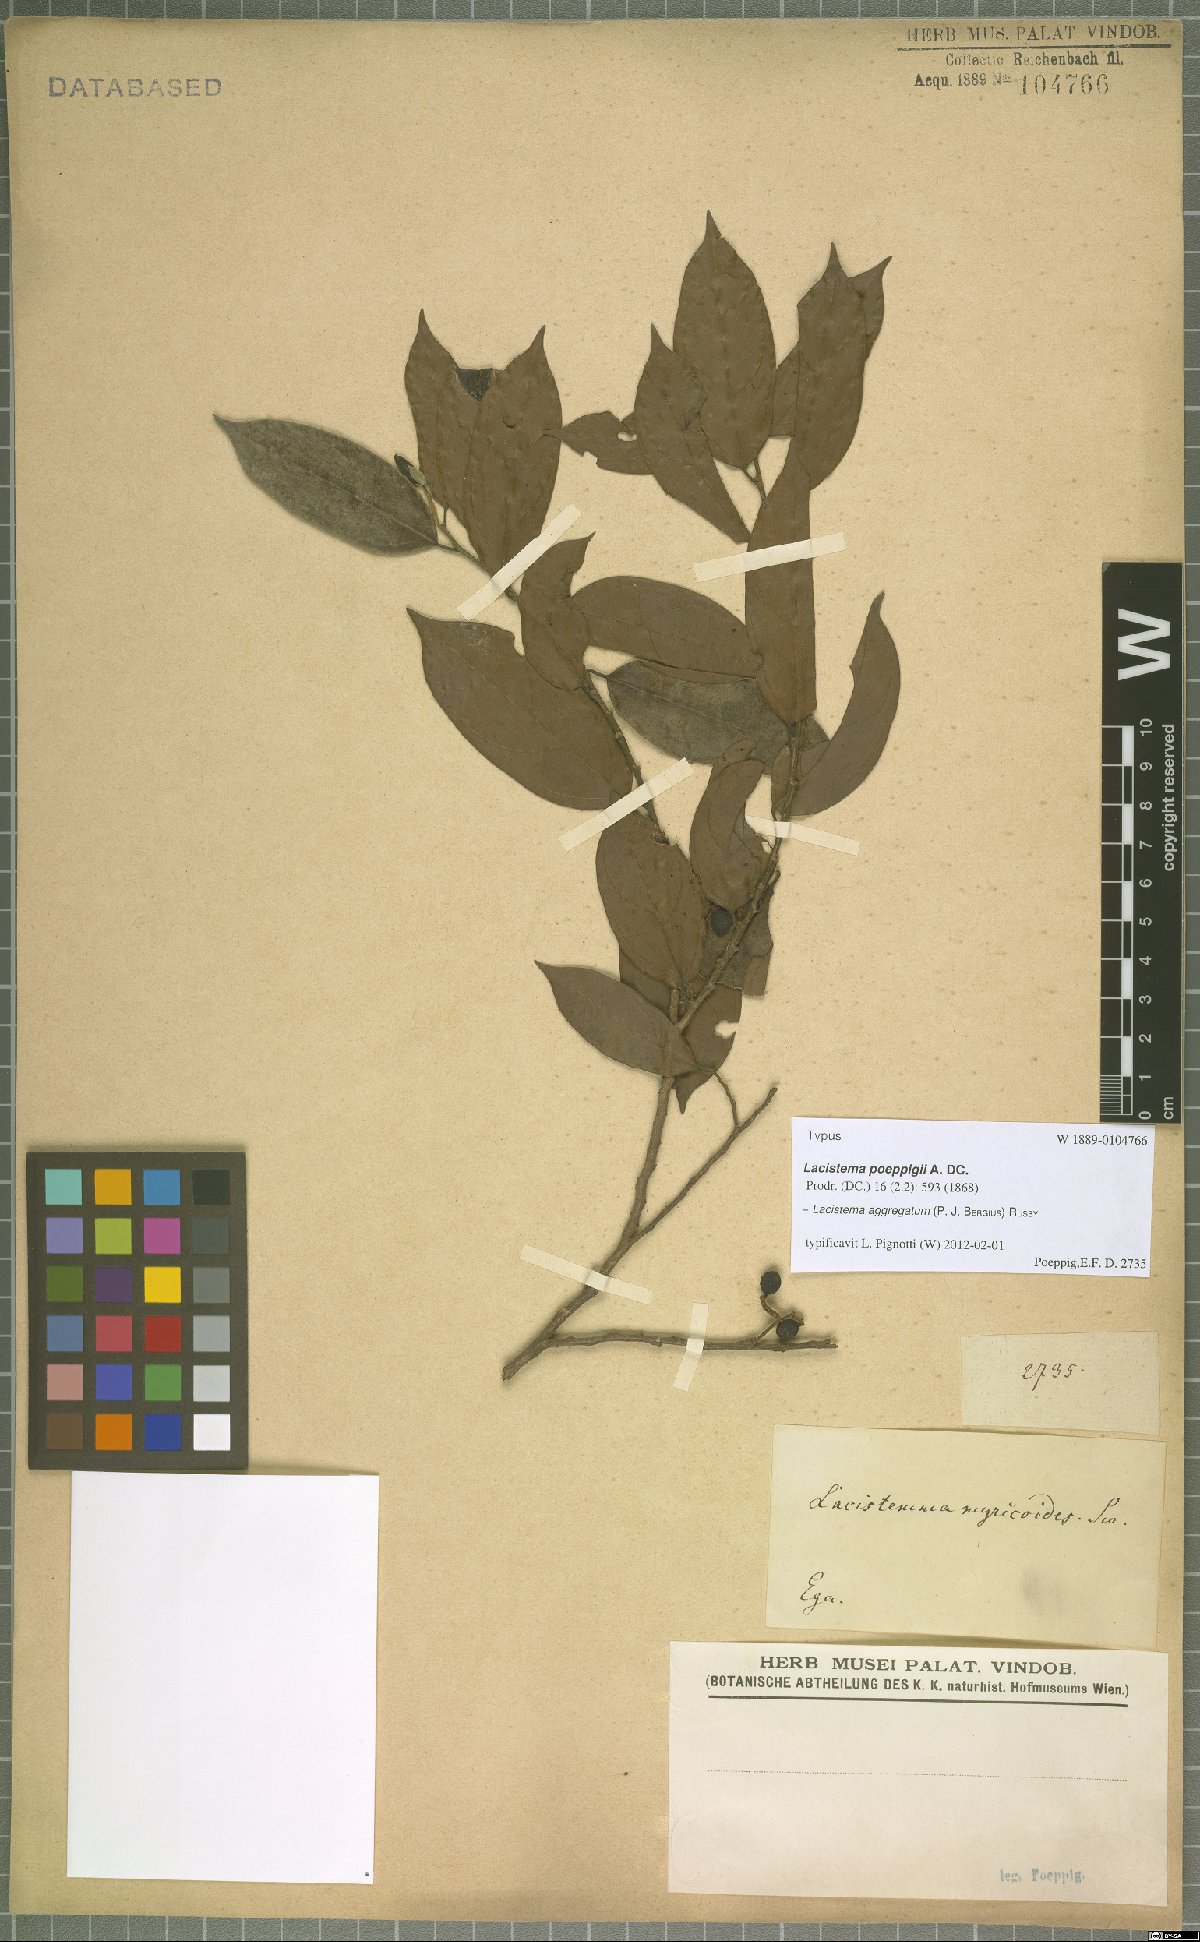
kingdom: Plantae
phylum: Tracheophyta
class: Magnoliopsida
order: Malpighiales
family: Lacistemataceae
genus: Lacistema
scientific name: Lacistema aggregatum
